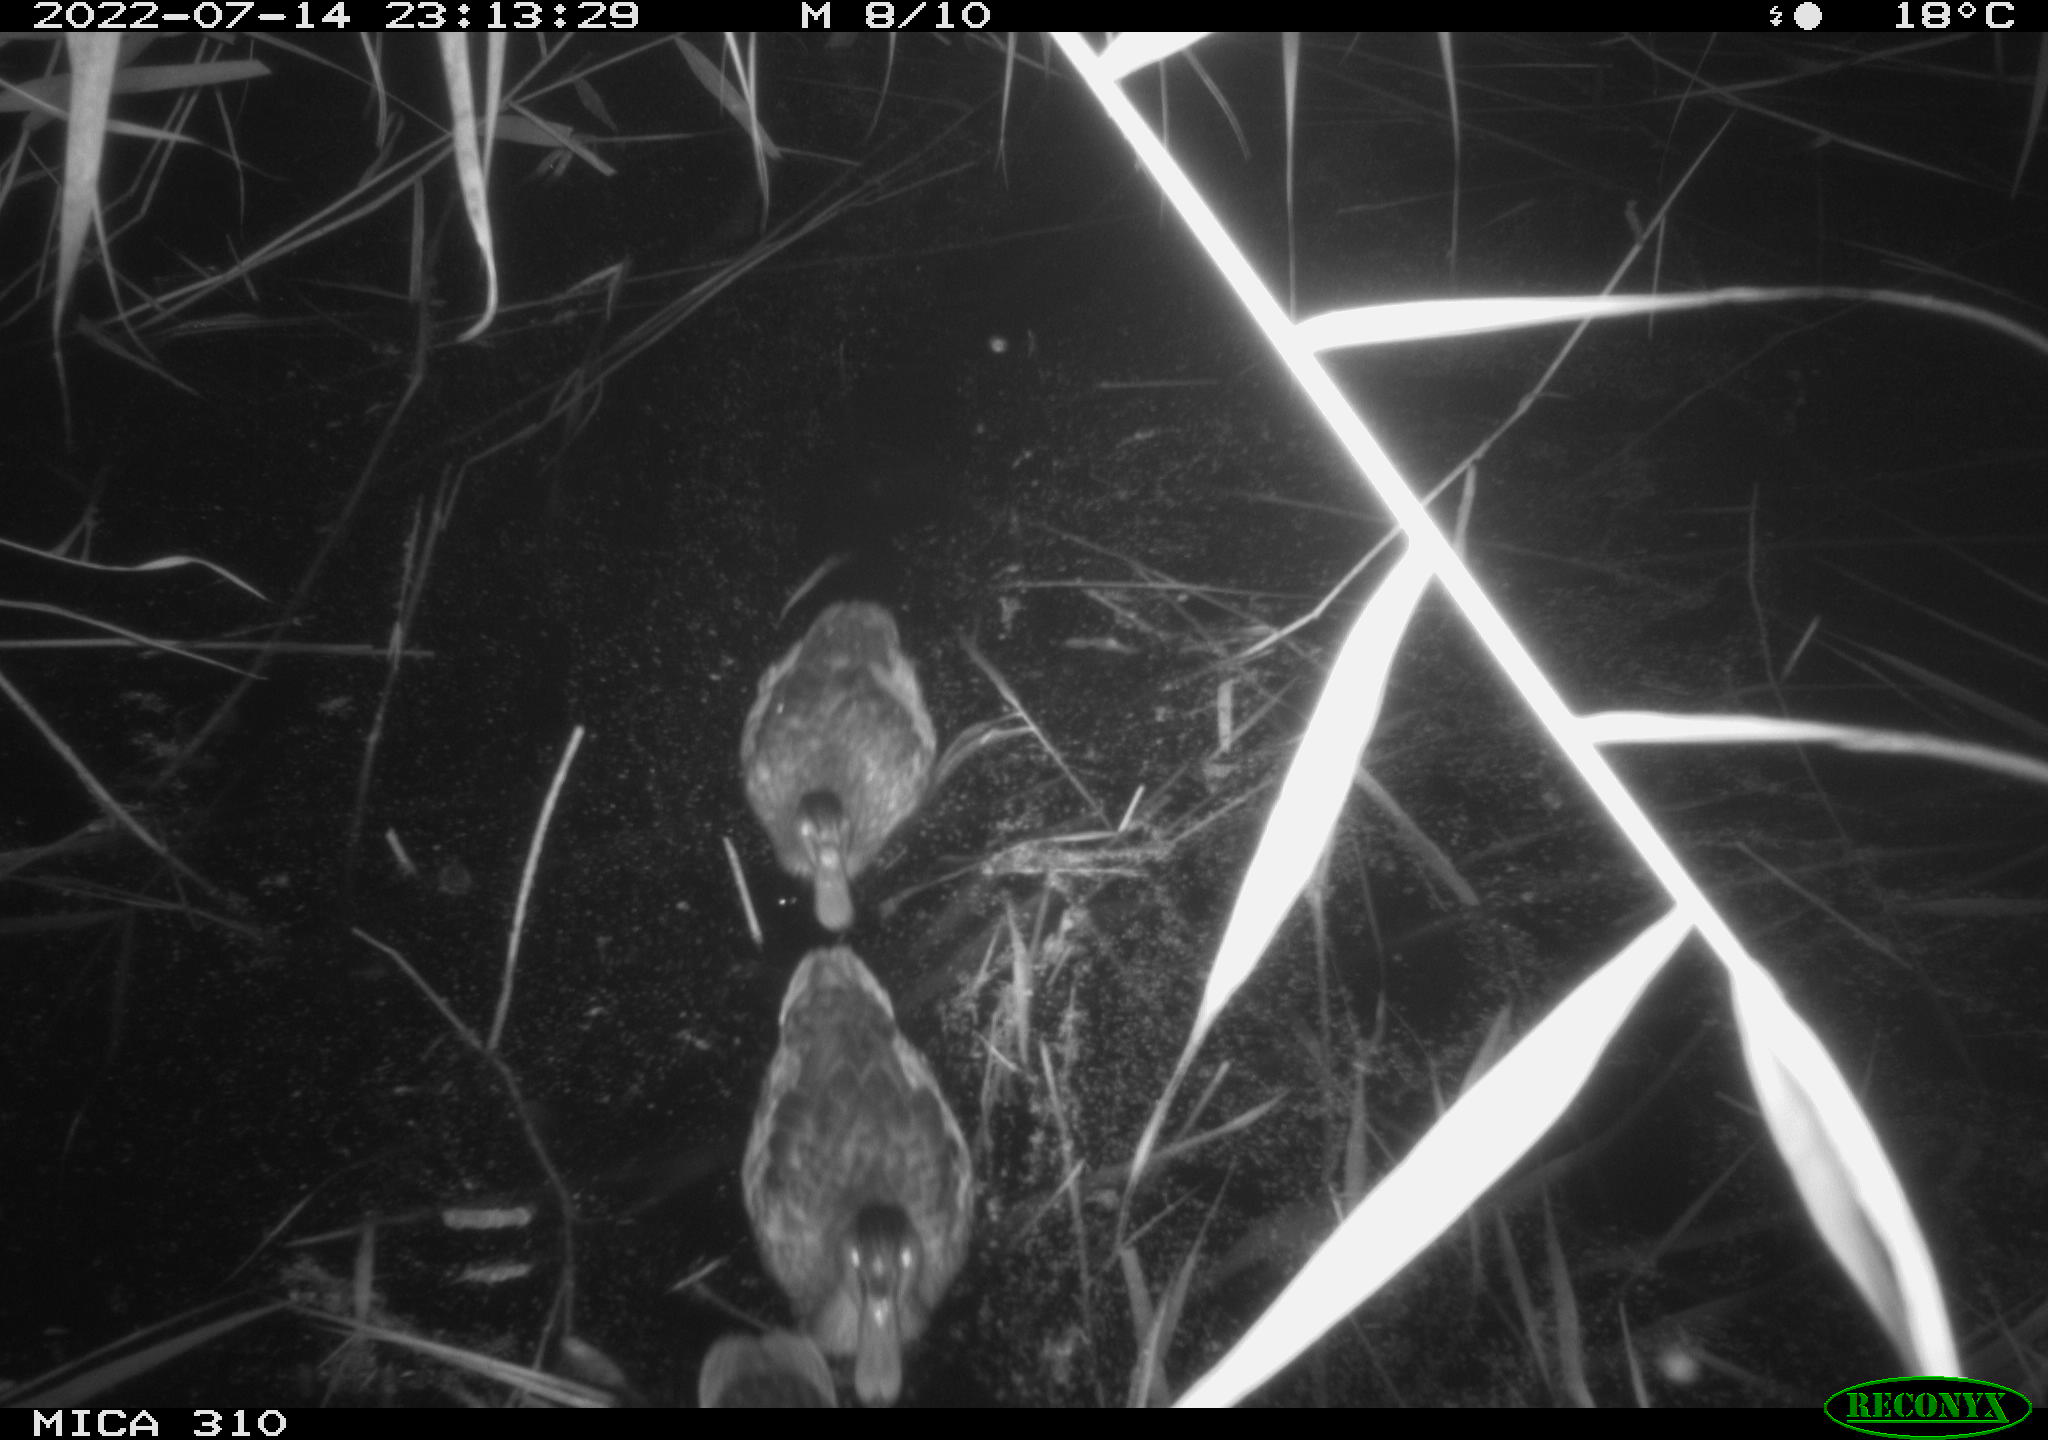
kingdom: Animalia
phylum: Chordata
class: Aves
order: Anseriformes
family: Anatidae
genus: Anas
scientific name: Anas platyrhynchos
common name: Mallard
